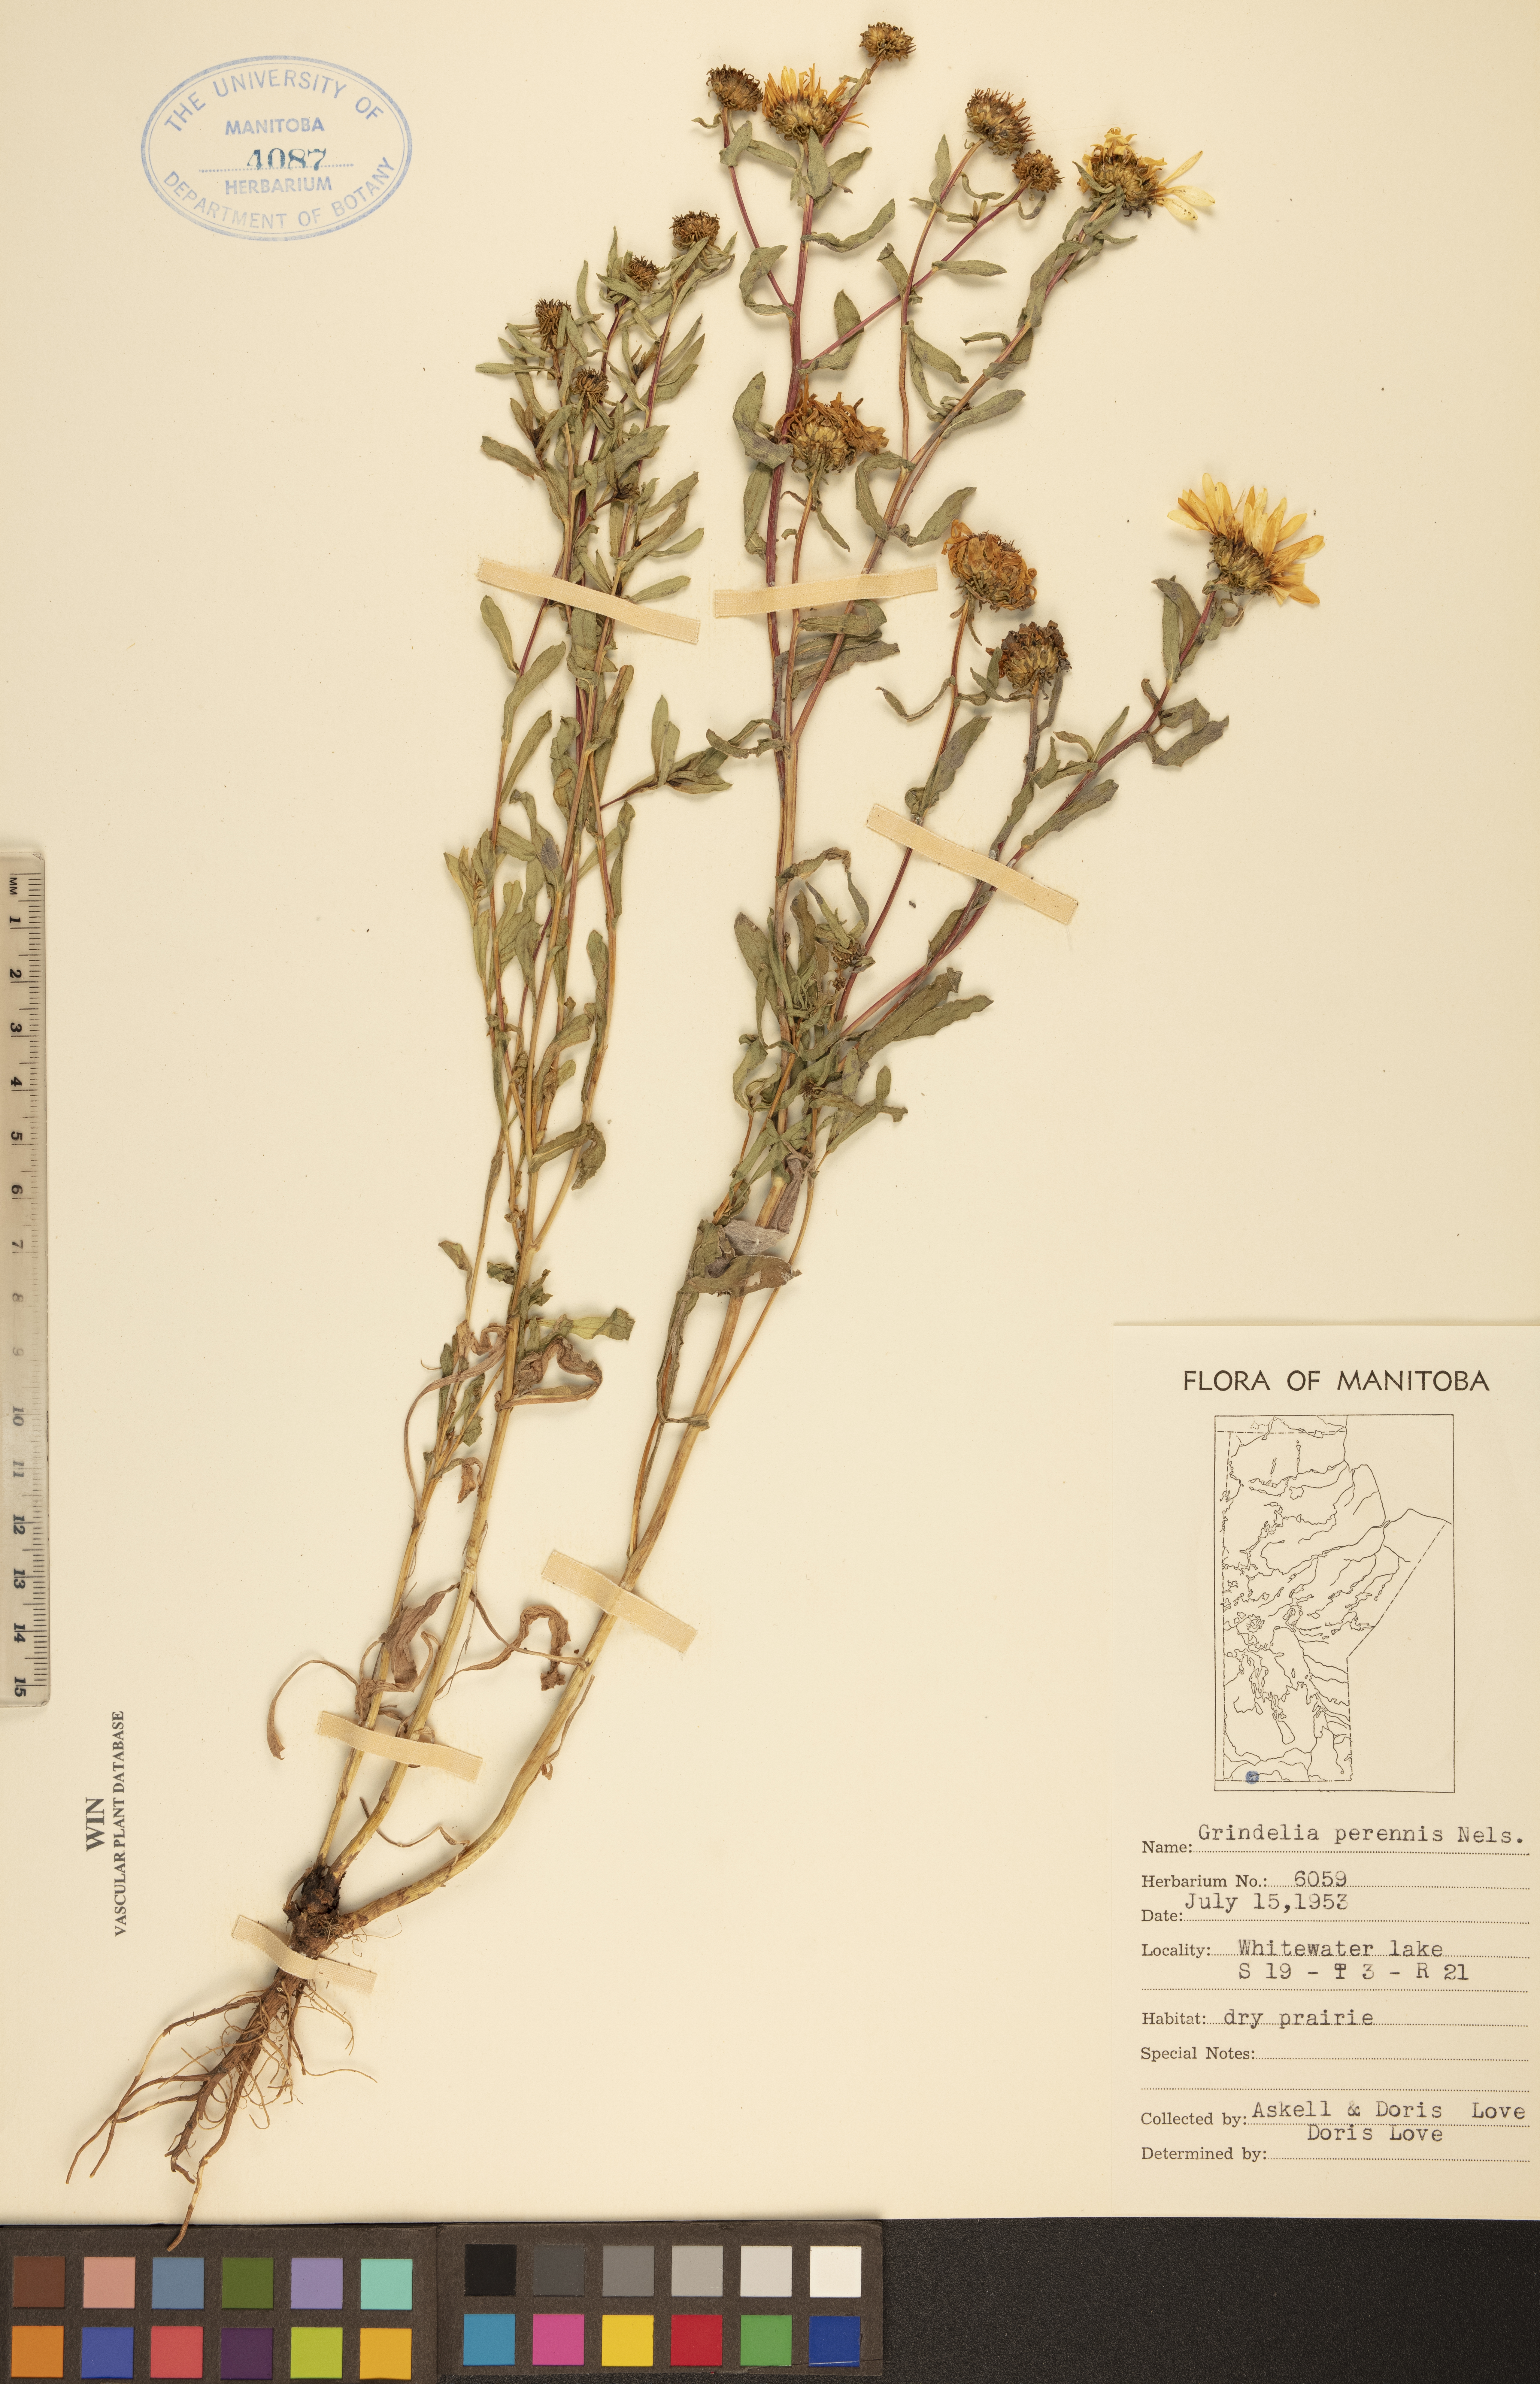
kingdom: Plantae
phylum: Tracheophyta
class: Magnoliopsida
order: Asterales
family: Asteraceae
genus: Grindelia
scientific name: Grindelia hirsutula
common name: Hairy gumweed
